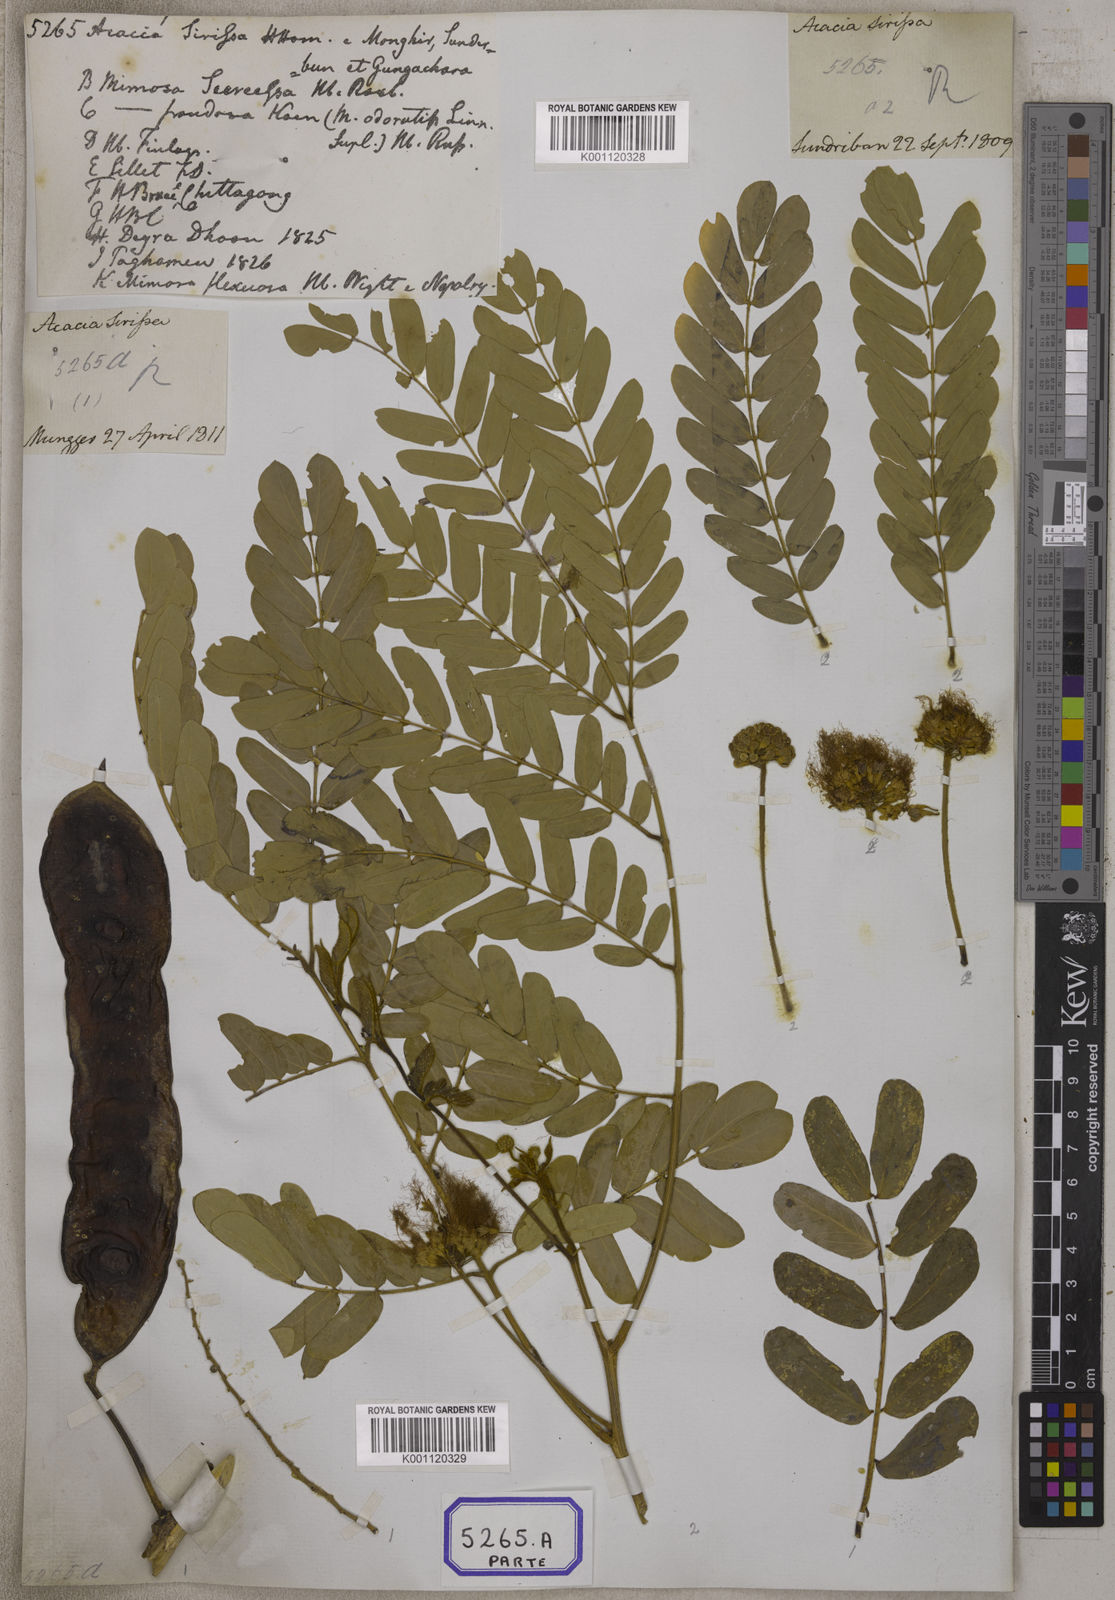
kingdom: Plantae
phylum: Tracheophyta
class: Magnoliopsida
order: Fabales
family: Fabaceae
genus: Acacia
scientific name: Acacia
